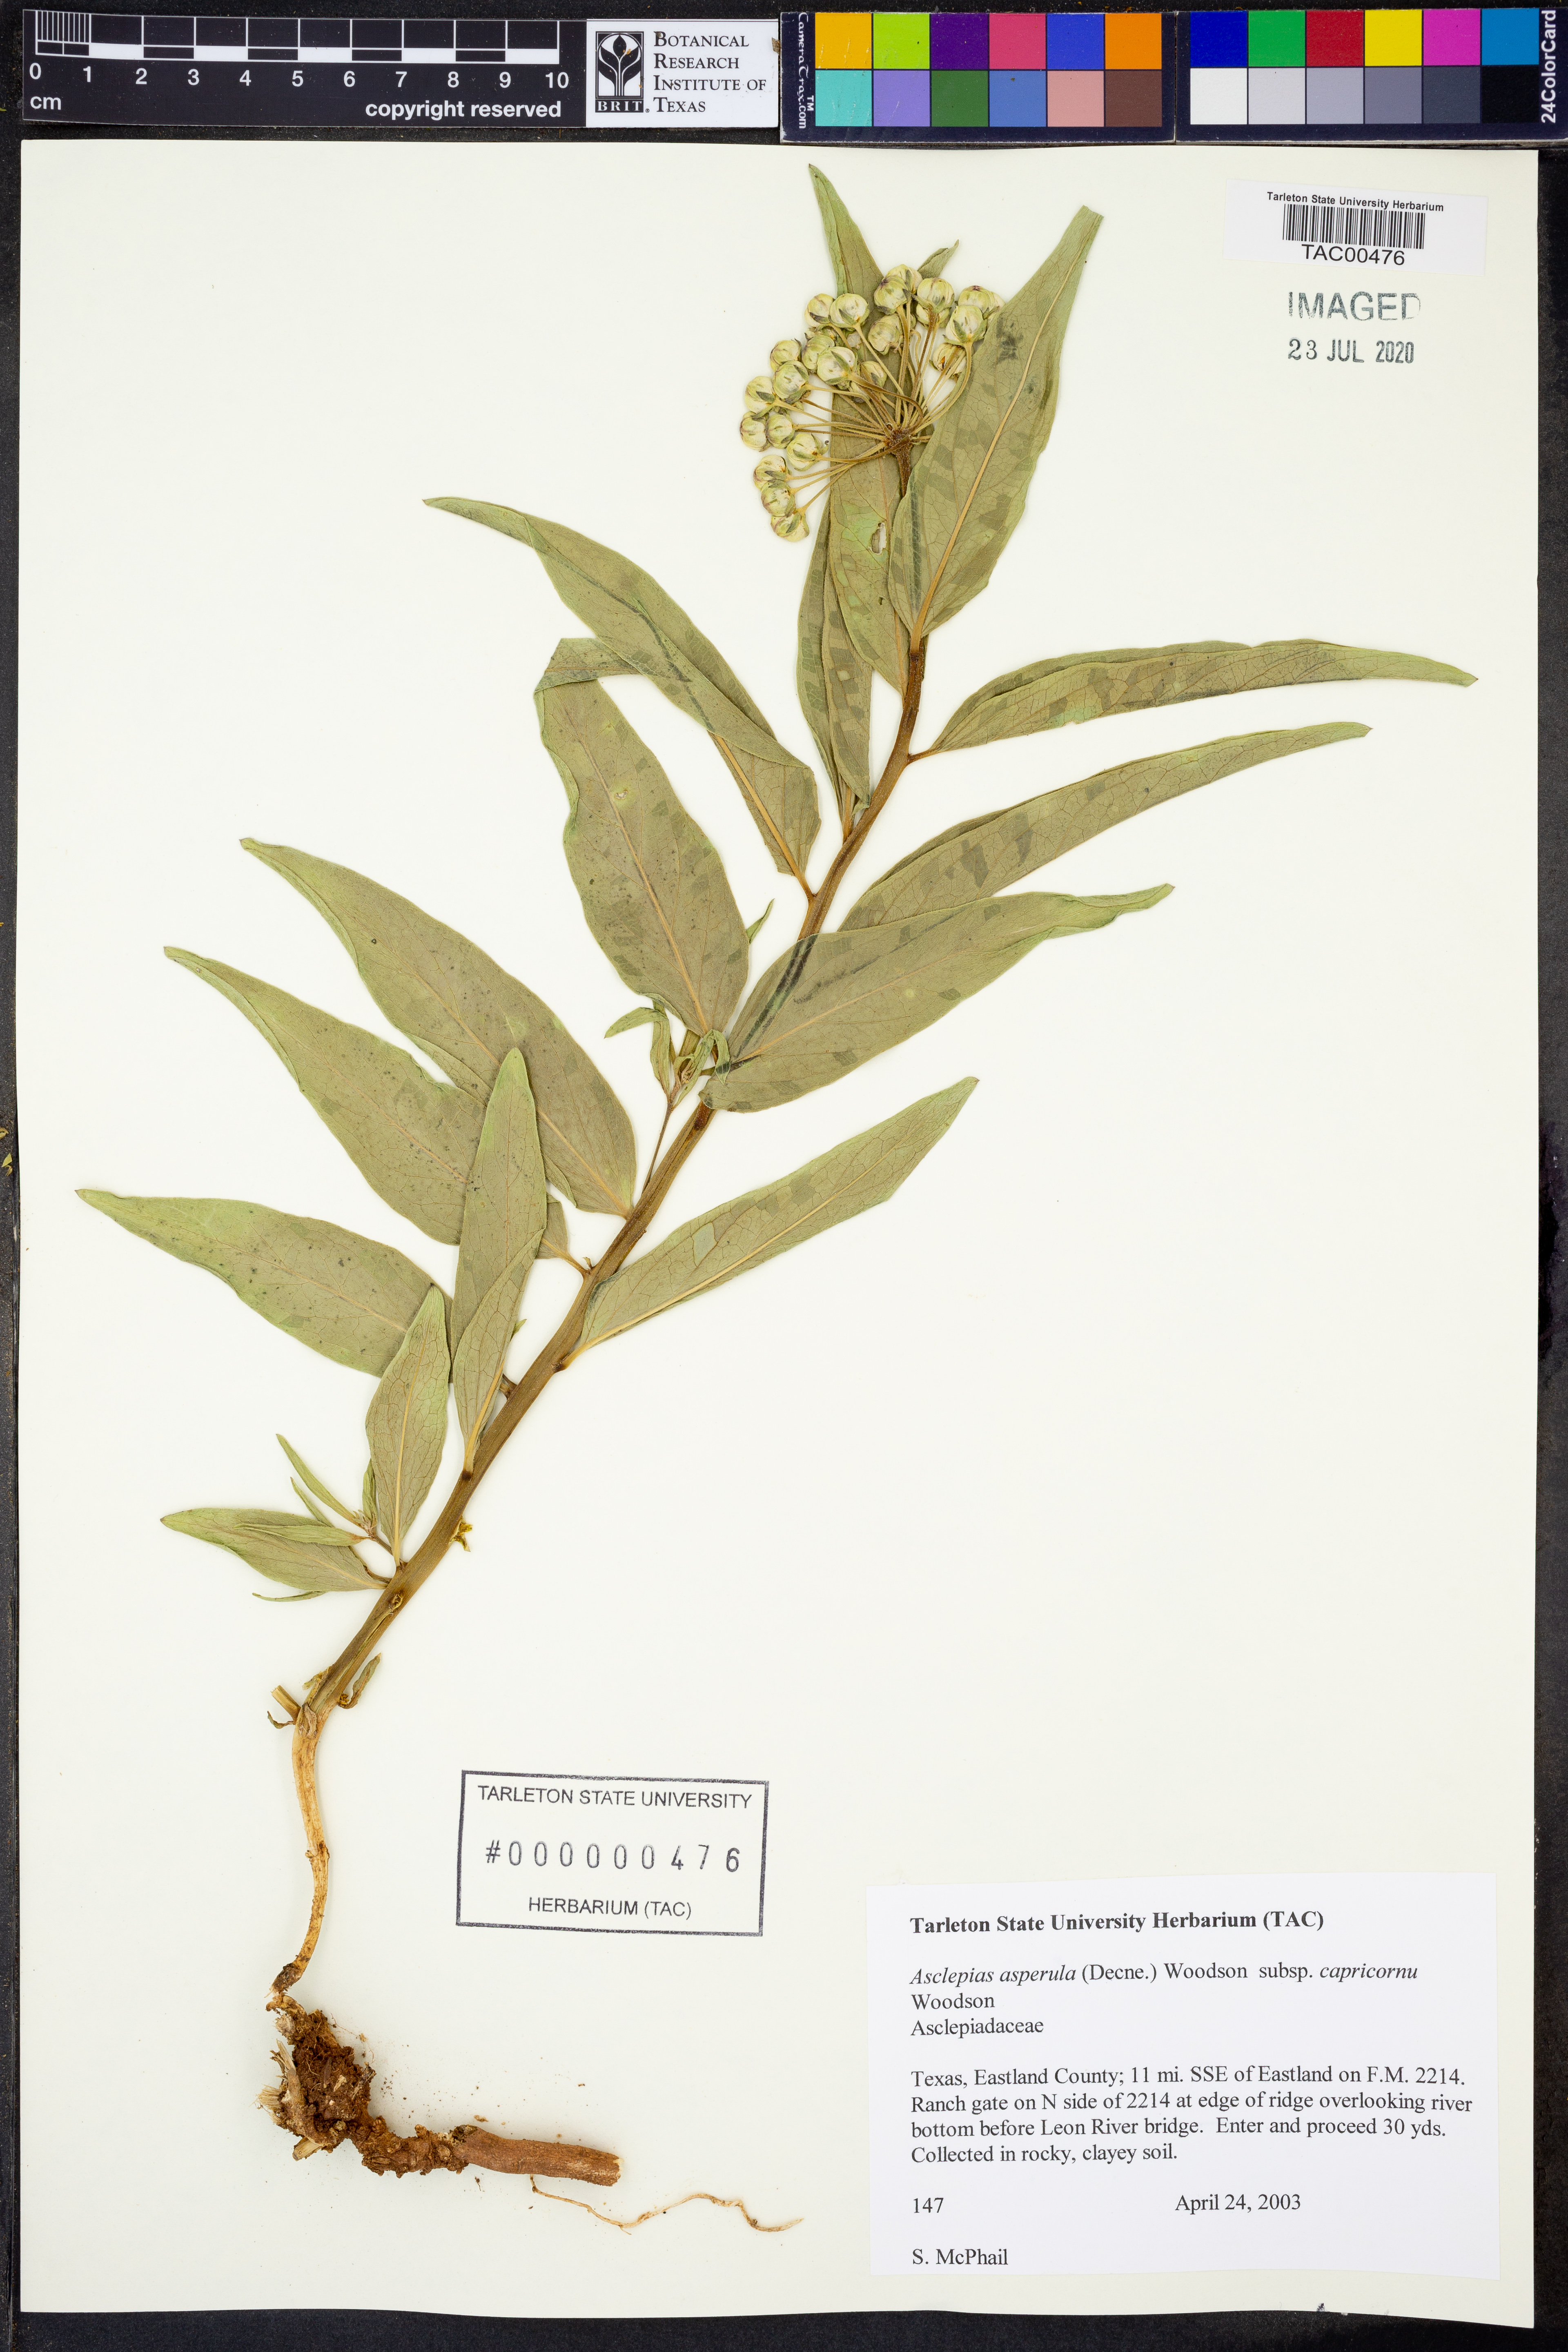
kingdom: Plantae
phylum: Tracheophyta
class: Magnoliopsida
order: Gentianales
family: Apocynaceae
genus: Asclepias
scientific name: Asclepias asperula
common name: Antelope horns
